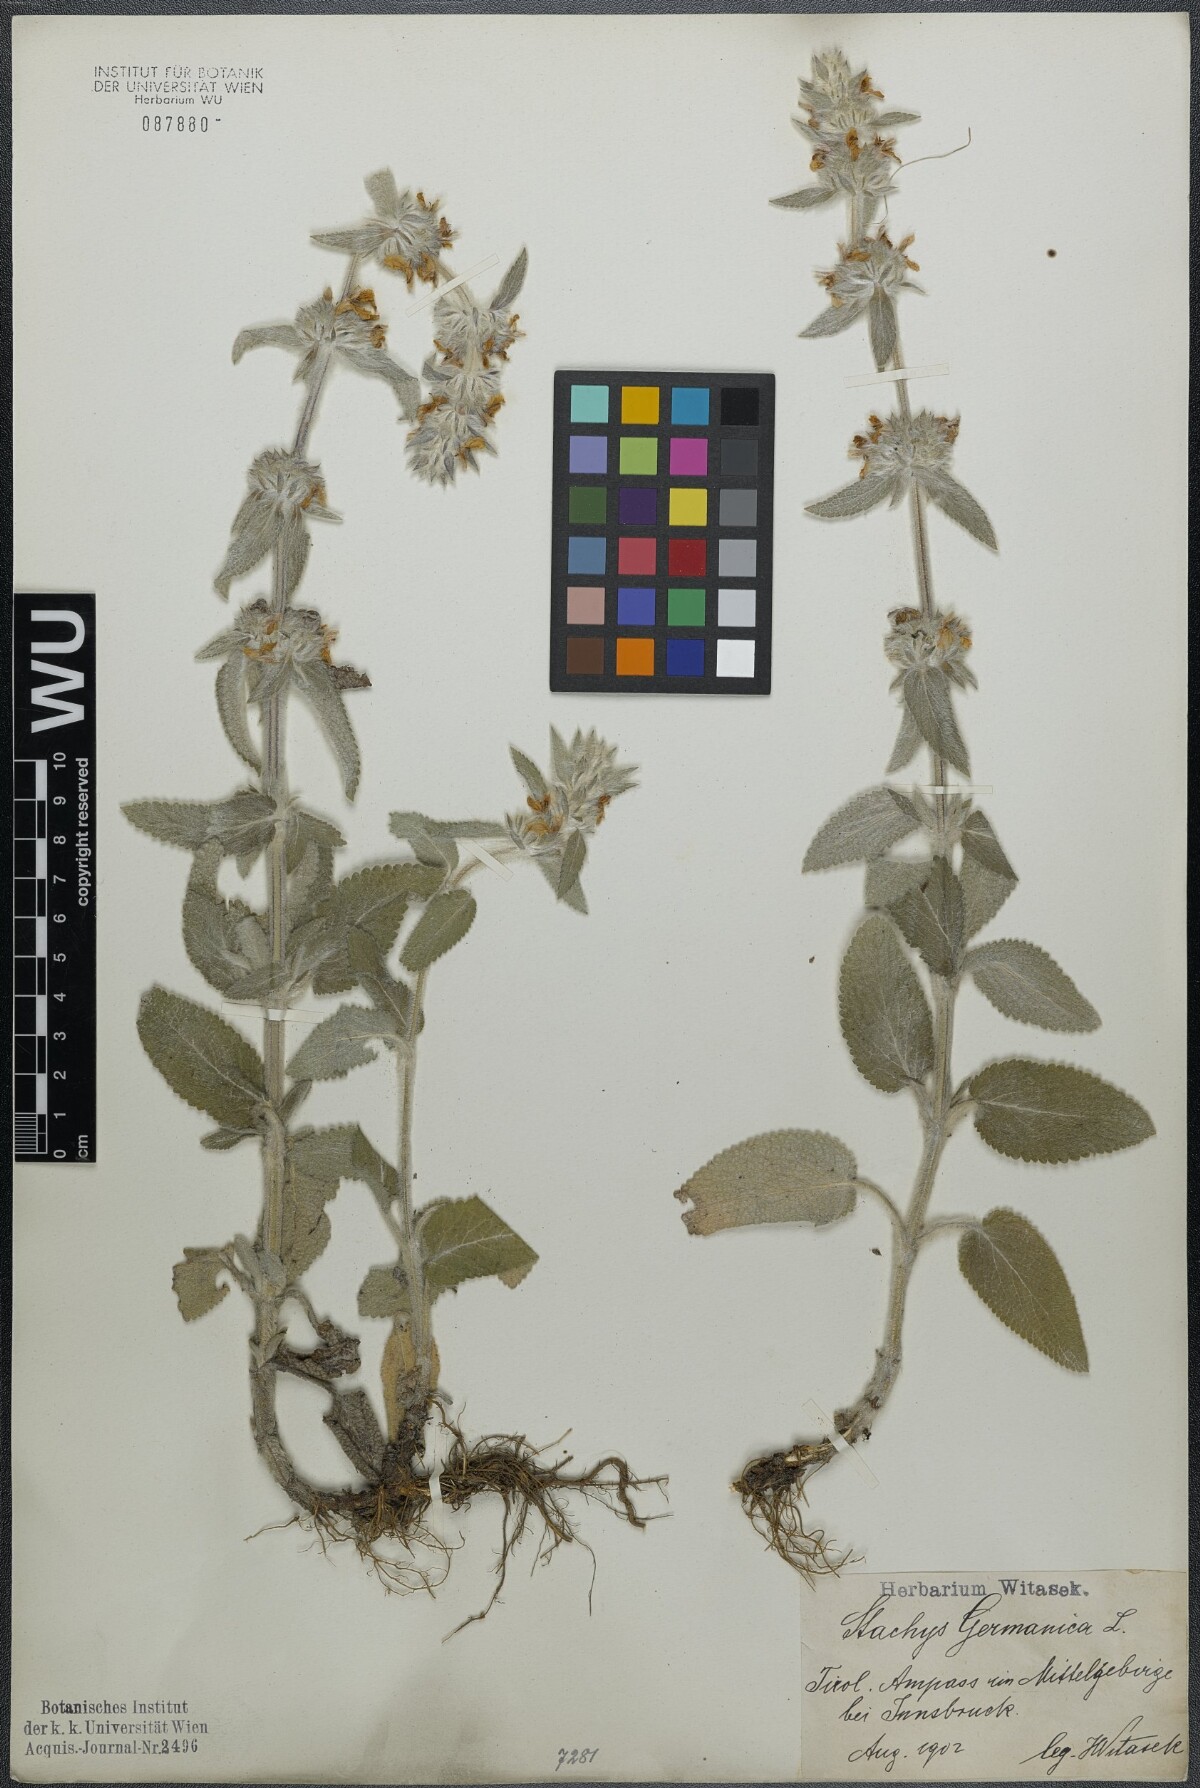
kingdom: Plantae
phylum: Tracheophyta
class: Magnoliopsida
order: Lamiales
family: Lamiaceae
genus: Stachys
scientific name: Stachys germanica
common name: Downy woundwort
